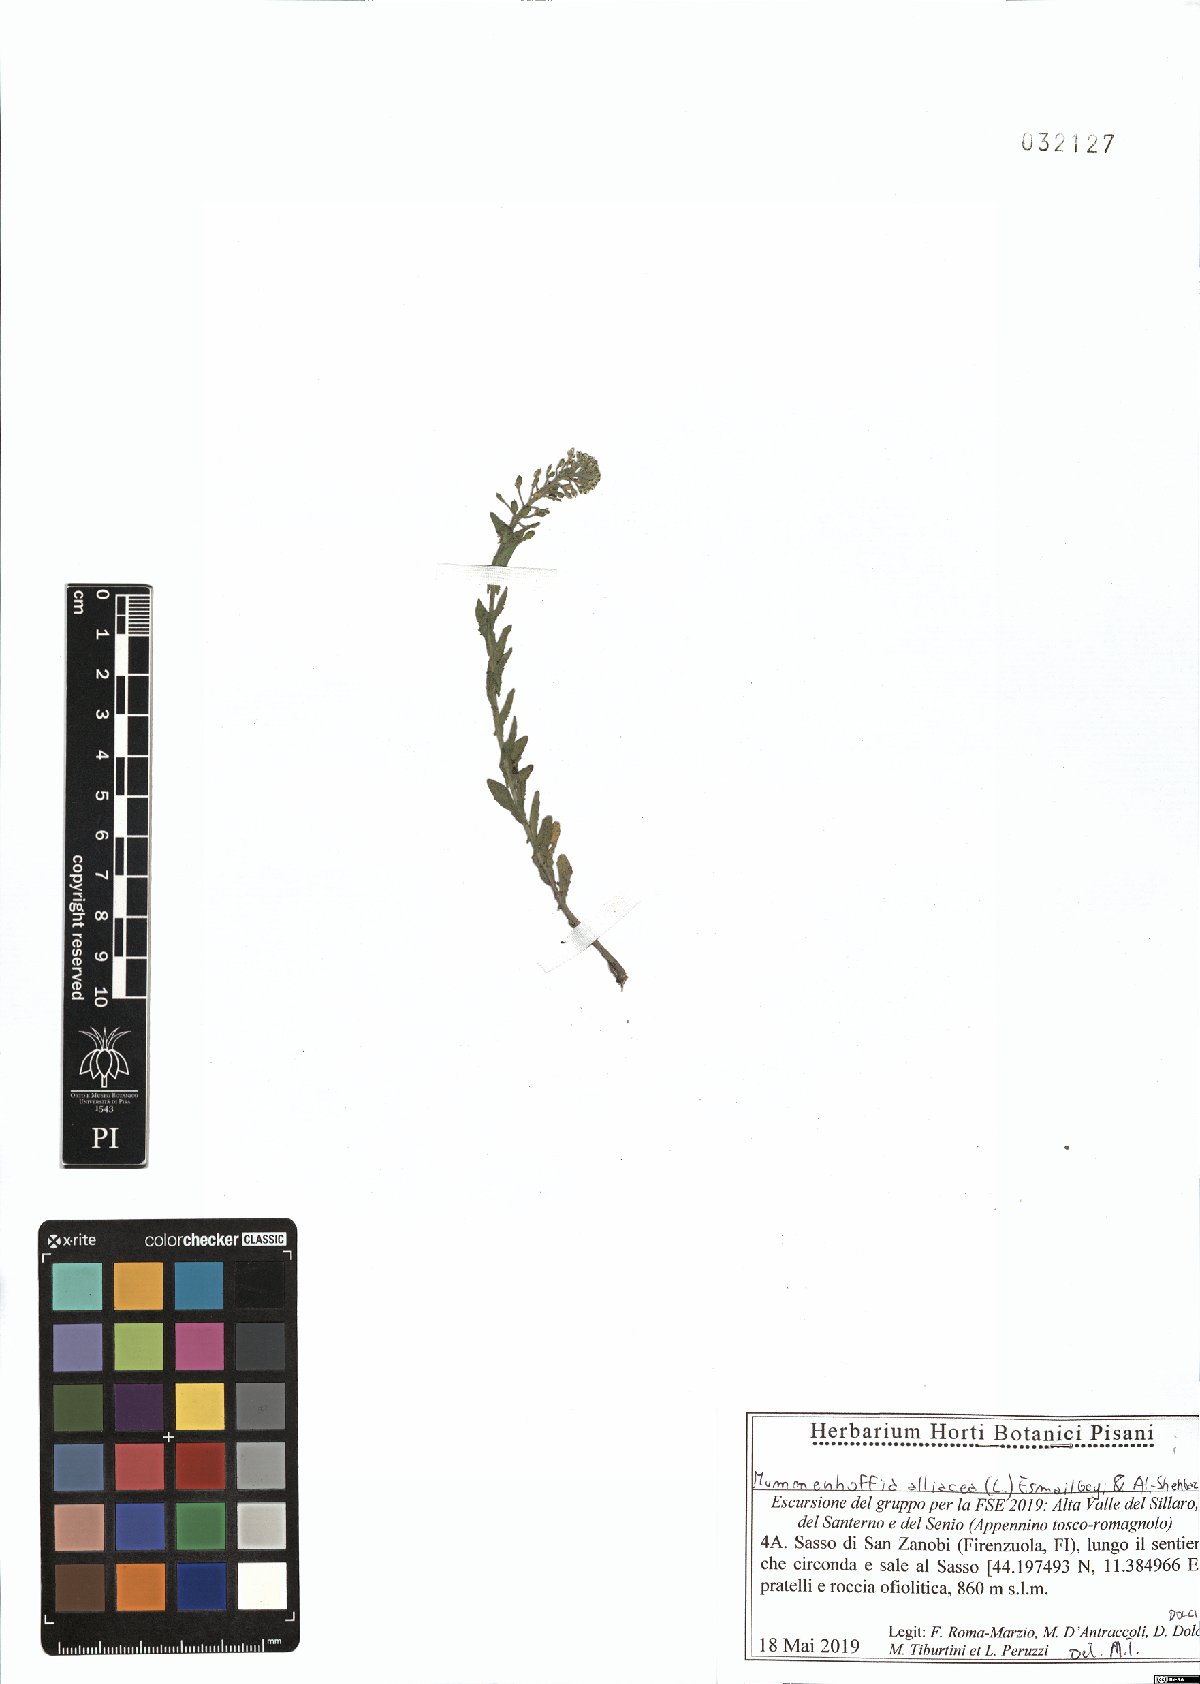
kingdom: Plantae
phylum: Tracheophyta
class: Magnoliopsida
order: Brassicales
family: Brassicaceae
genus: Mummenhoffia
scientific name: Mummenhoffia alliacea
